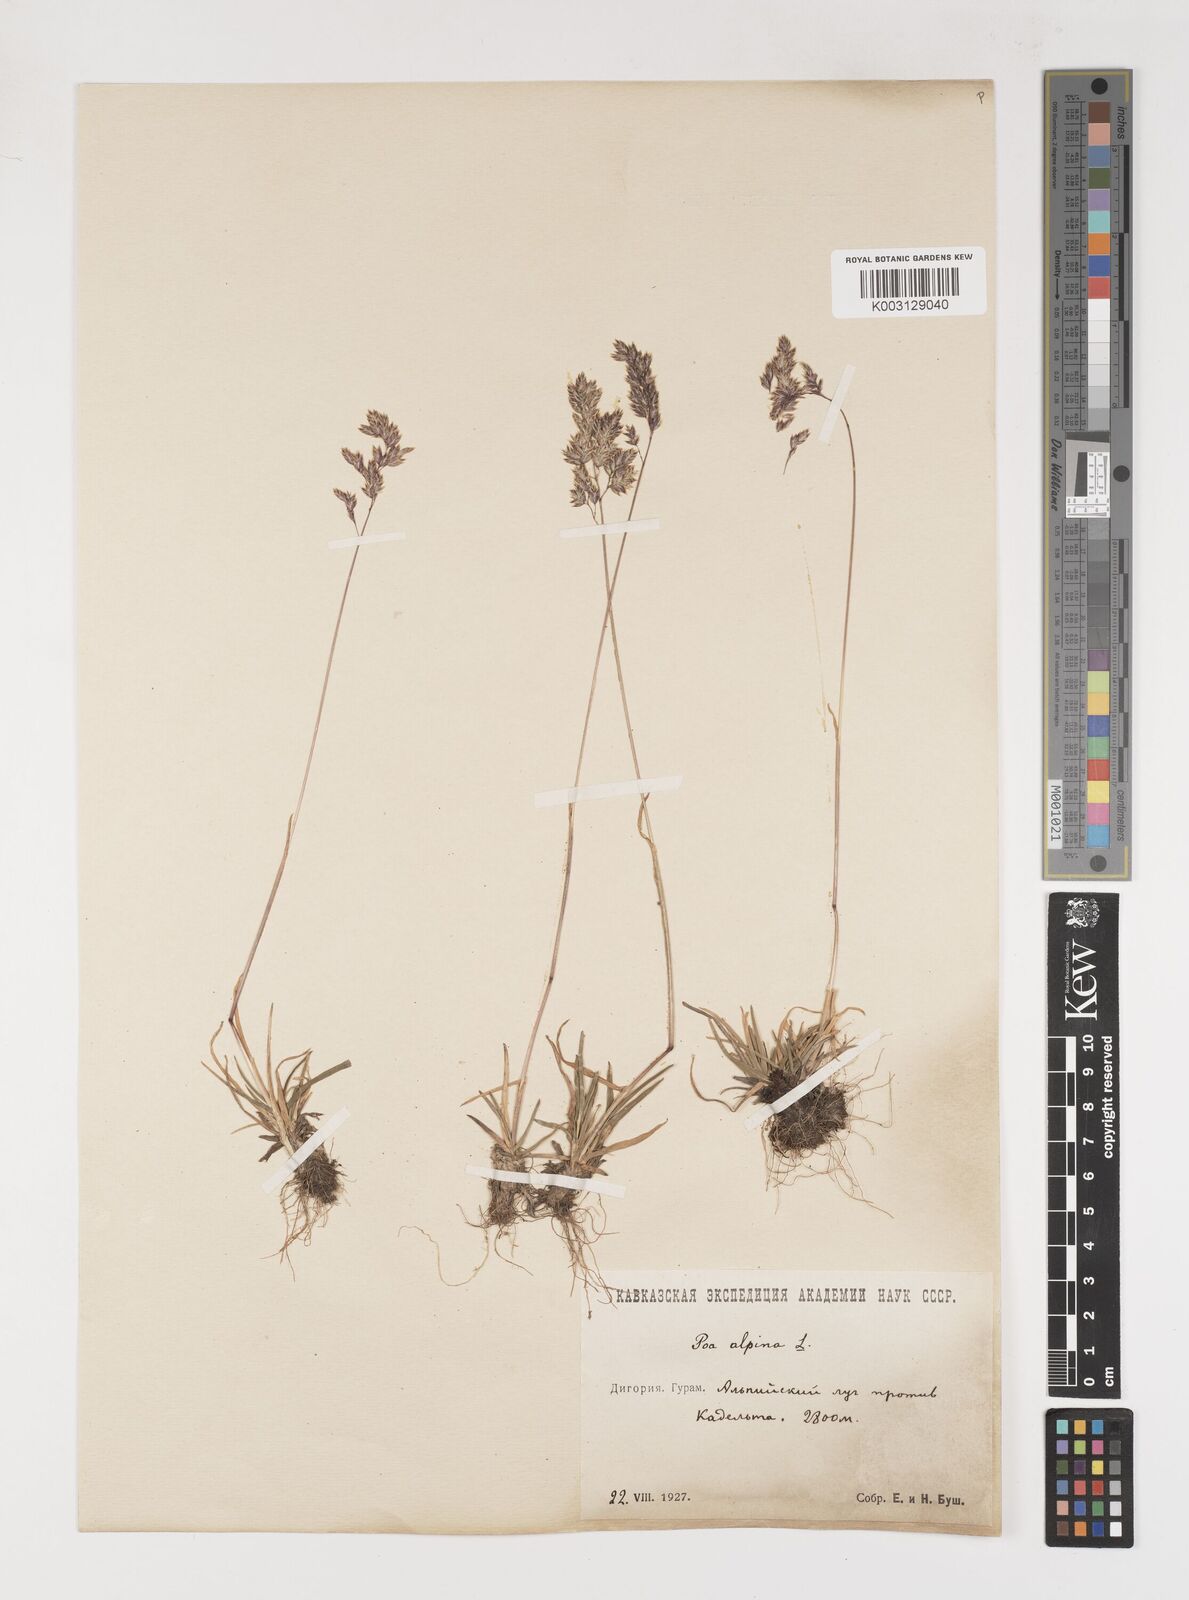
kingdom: Plantae
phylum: Tracheophyta
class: Liliopsida
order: Poales
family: Poaceae
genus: Poa
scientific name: Poa alpina
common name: Alpine bluegrass
